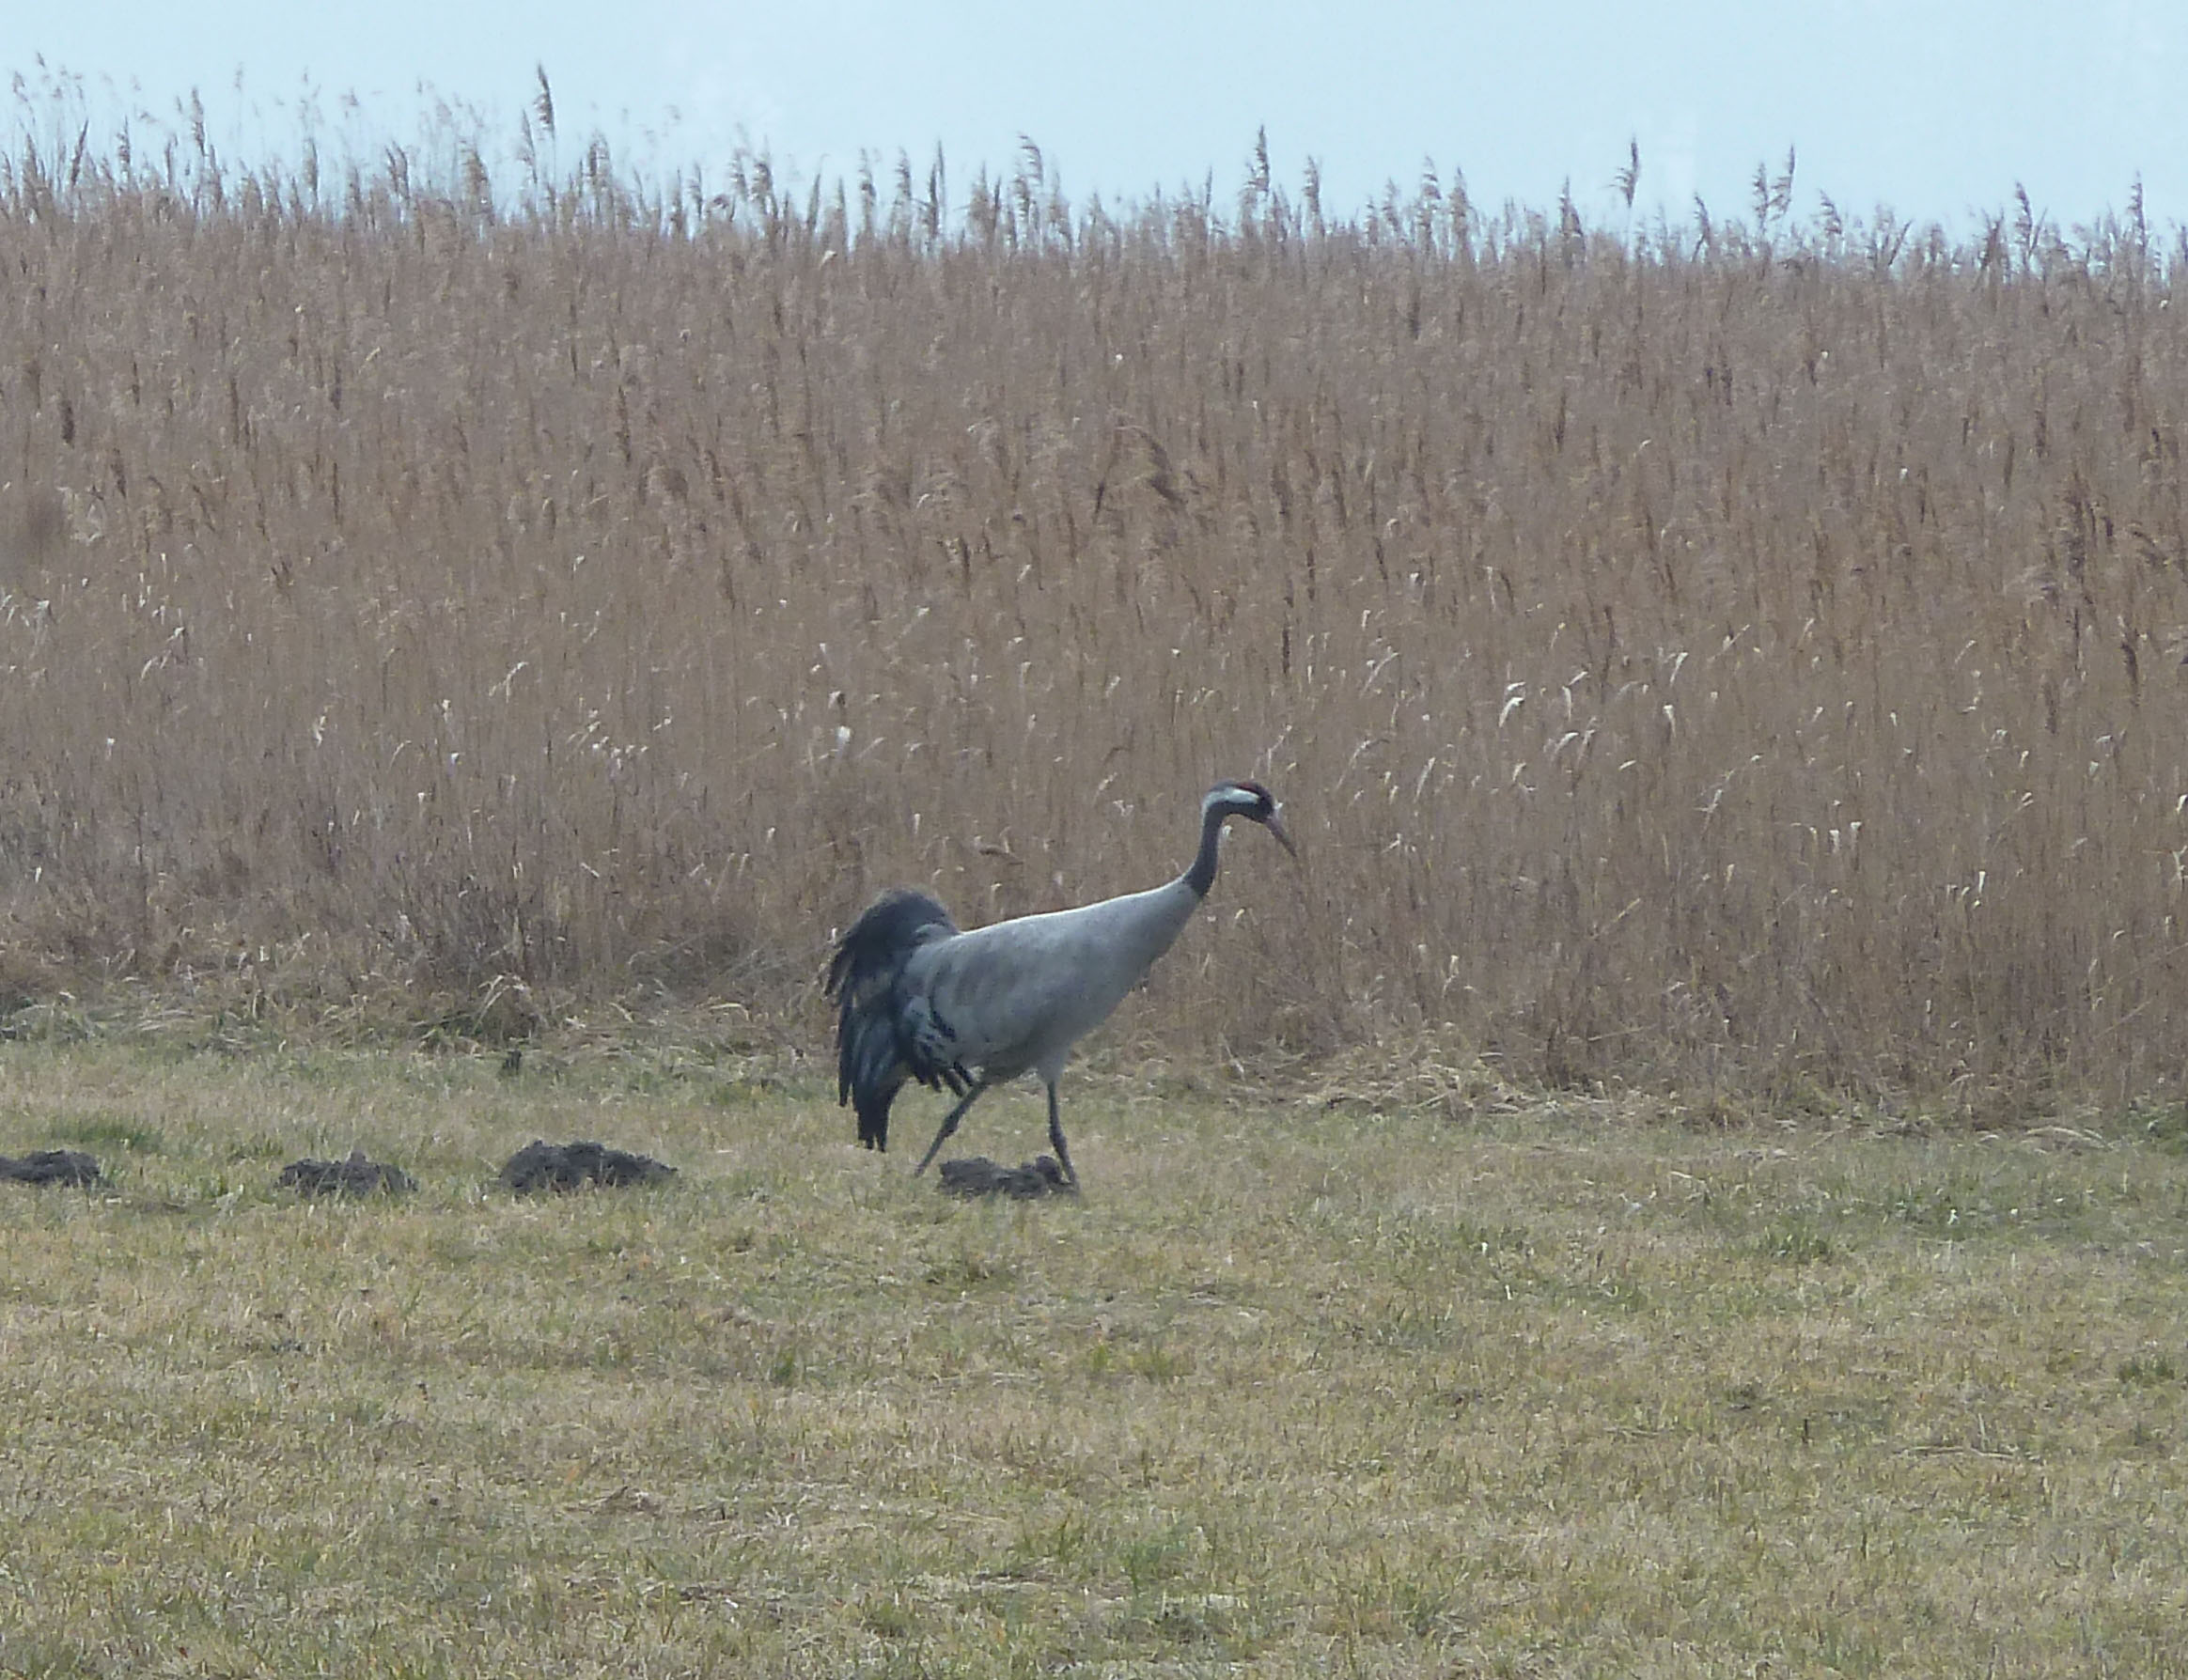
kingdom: Animalia
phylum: Chordata
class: Aves
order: Gruiformes
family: Gruidae
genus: Grus
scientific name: Grus grus
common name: Common crane
